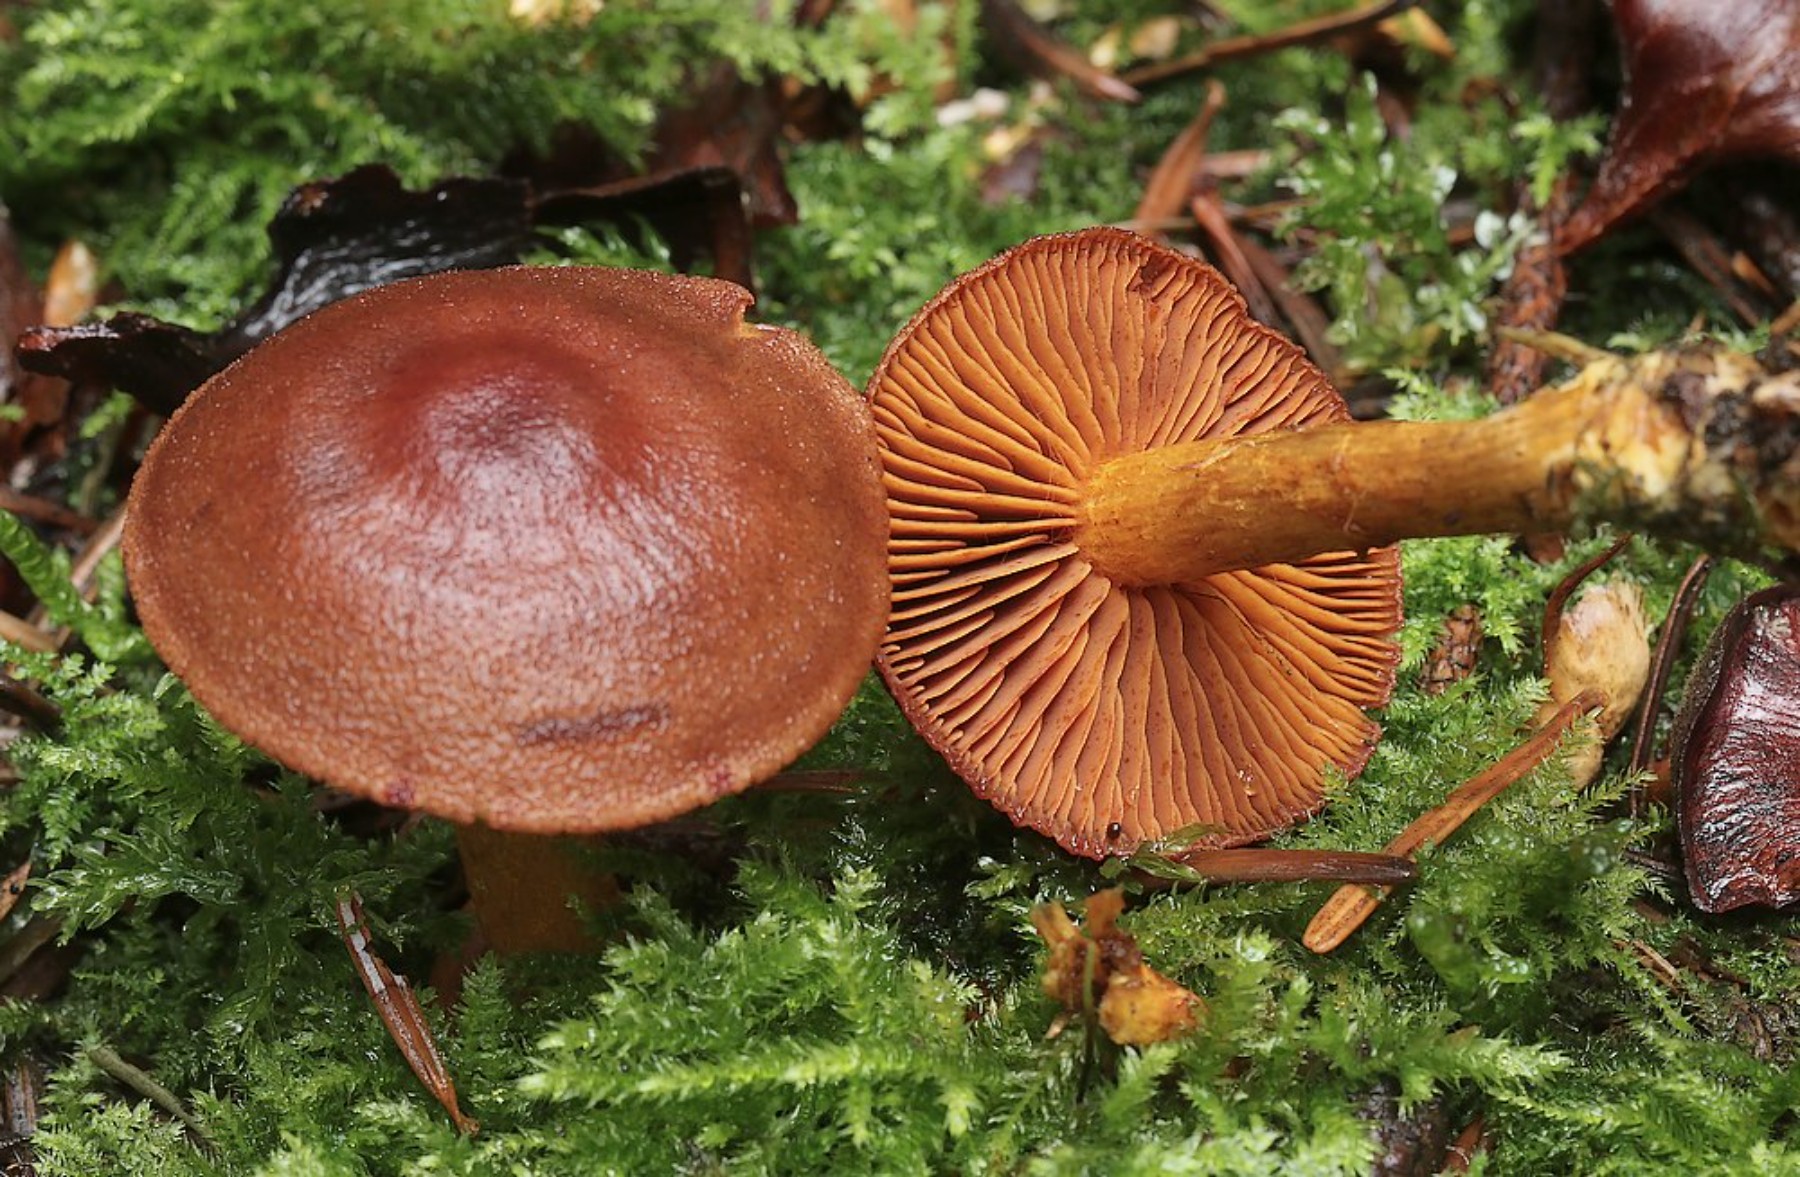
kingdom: Fungi
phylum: Basidiomycota
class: Agaricomycetes
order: Agaricales
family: Cortinariaceae
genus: Cortinarius
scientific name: Cortinarius
